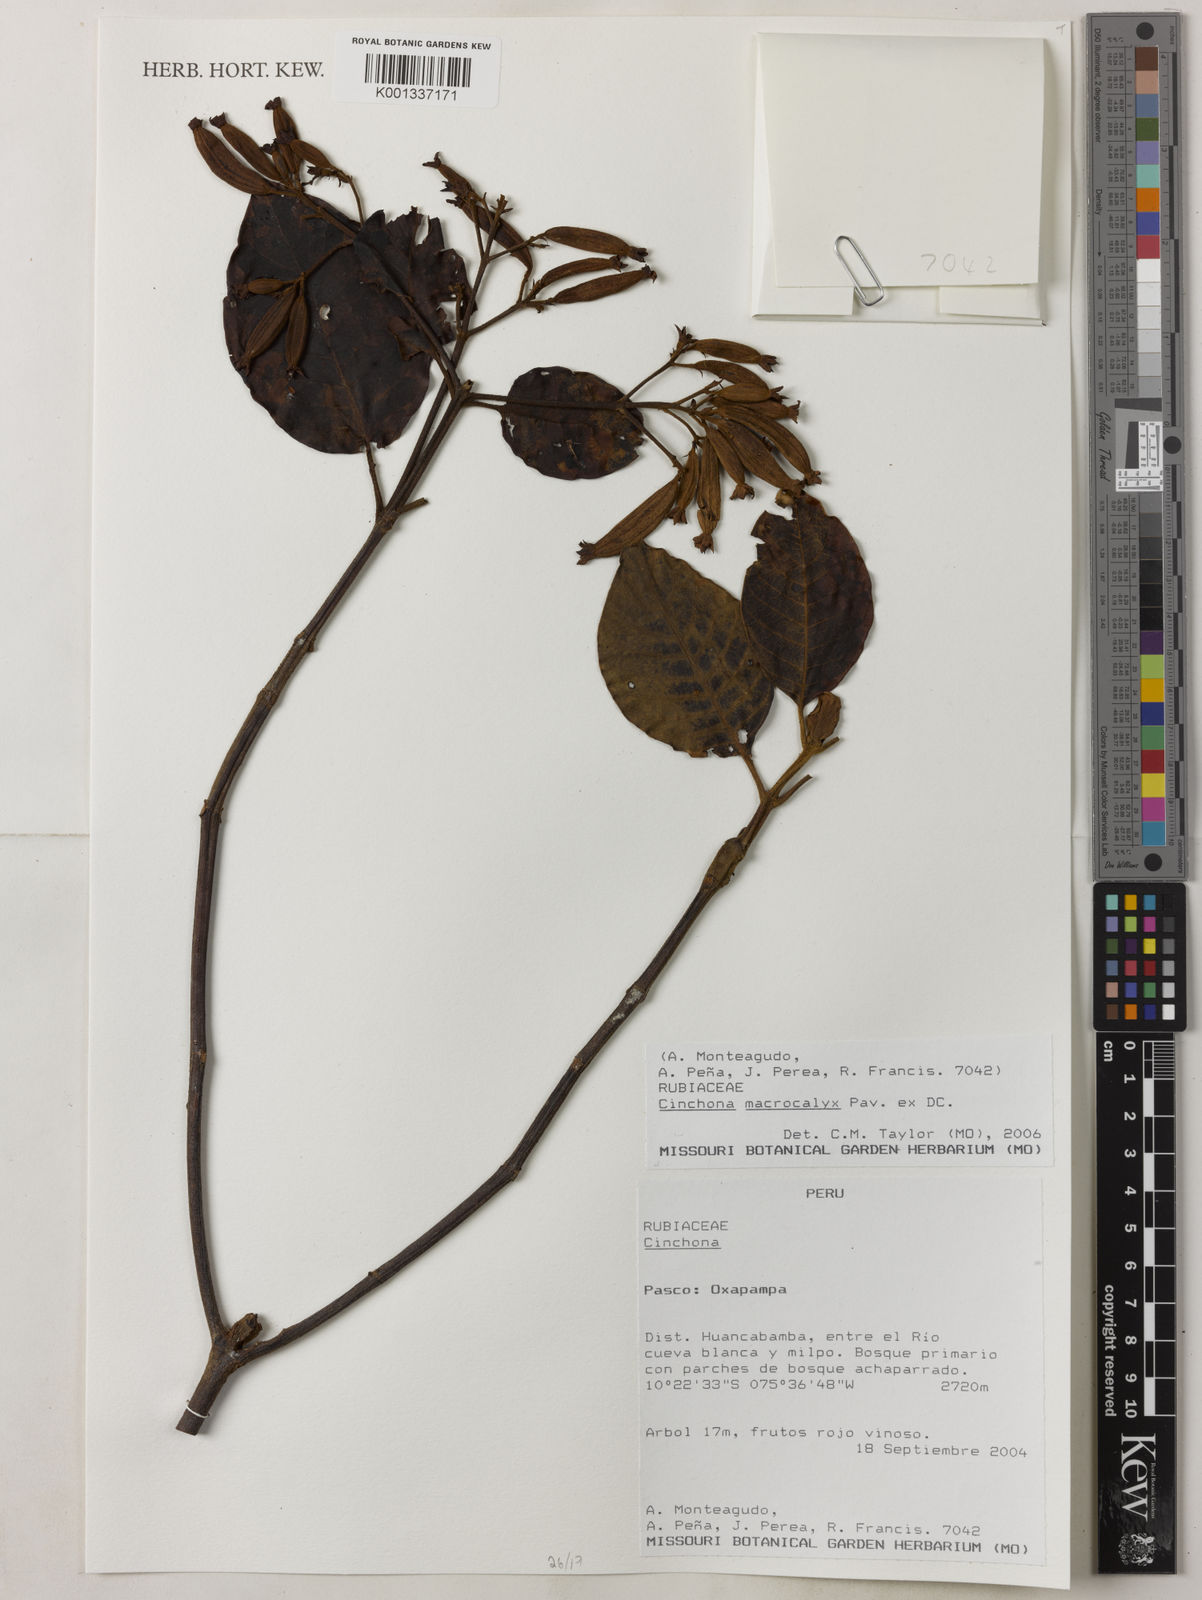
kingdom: Plantae
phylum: Tracheophyta
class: Magnoliopsida
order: Gentianales
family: Rubiaceae
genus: Cinchona
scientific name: Cinchona macrocalyx
